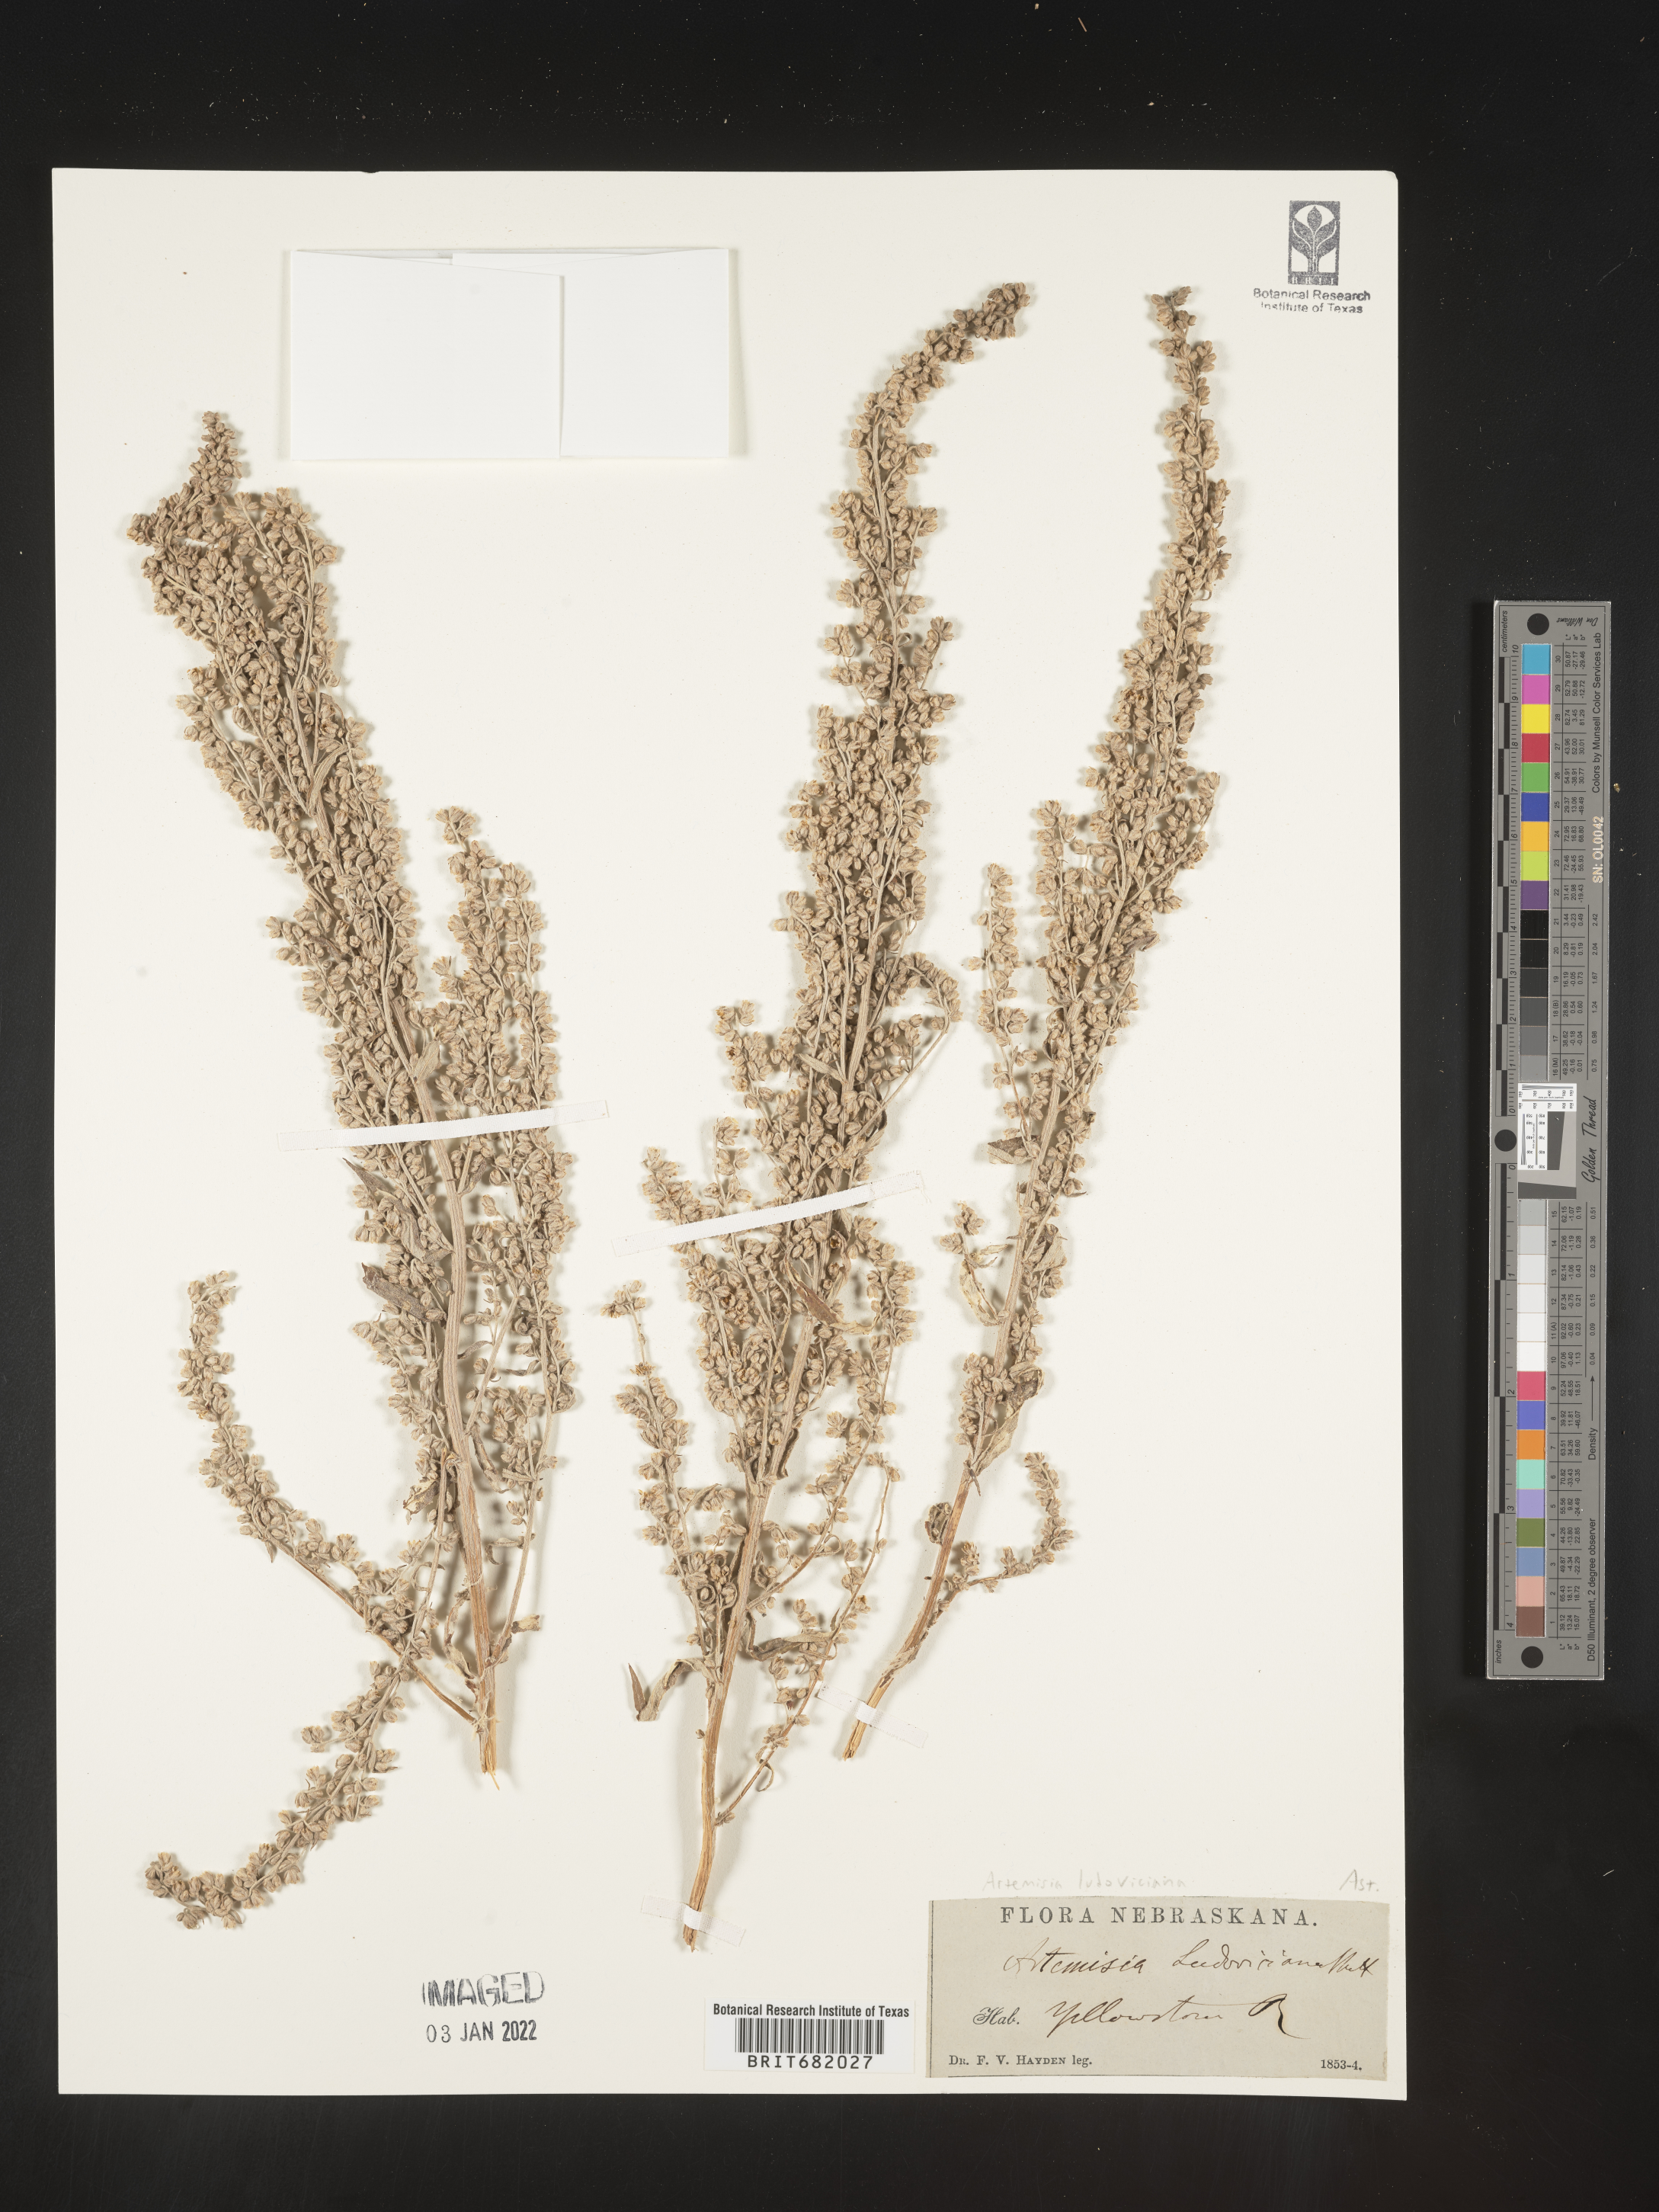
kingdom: Plantae
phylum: Tracheophyta
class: Magnoliopsida
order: Asterales
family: Asteraceae
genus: Artemisia
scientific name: Artemisia ludoviciana
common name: Western mugwort
